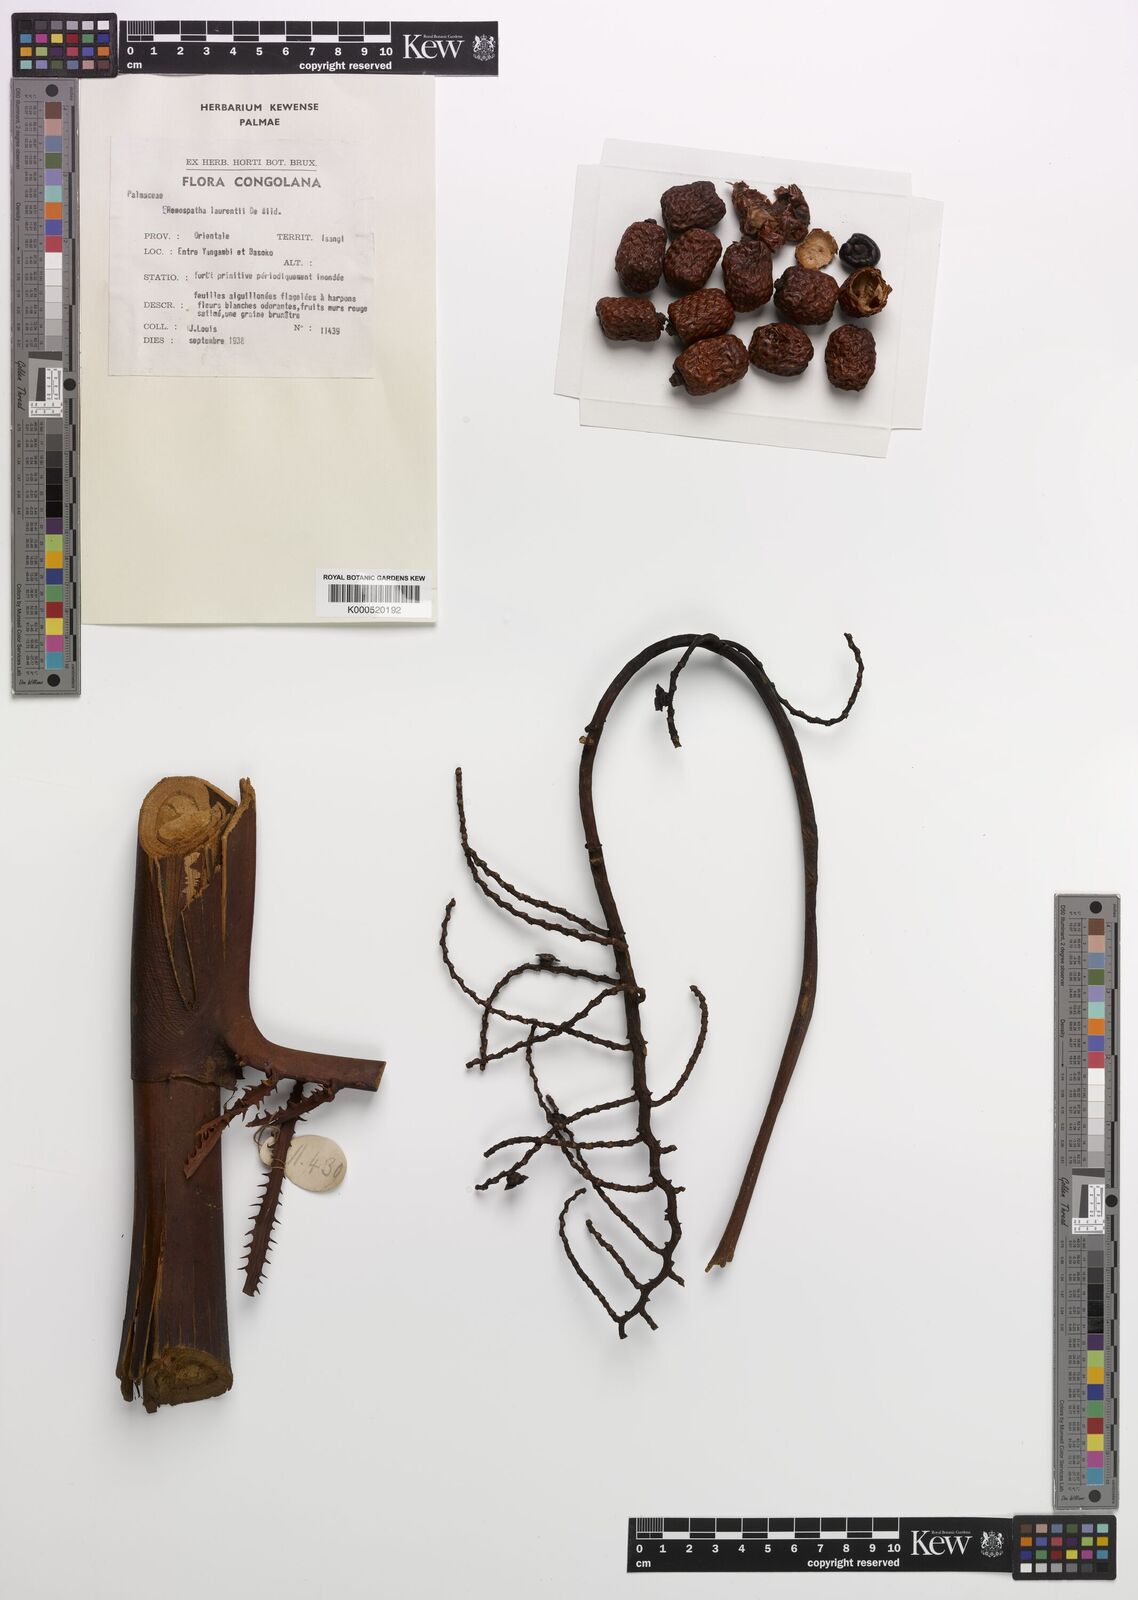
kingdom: Plantae
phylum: Tracheophyta
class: Liliopsida
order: Arecales
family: Arecaceae
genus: Eremospatha
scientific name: Eremospatha laurentii
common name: Rattan palm
